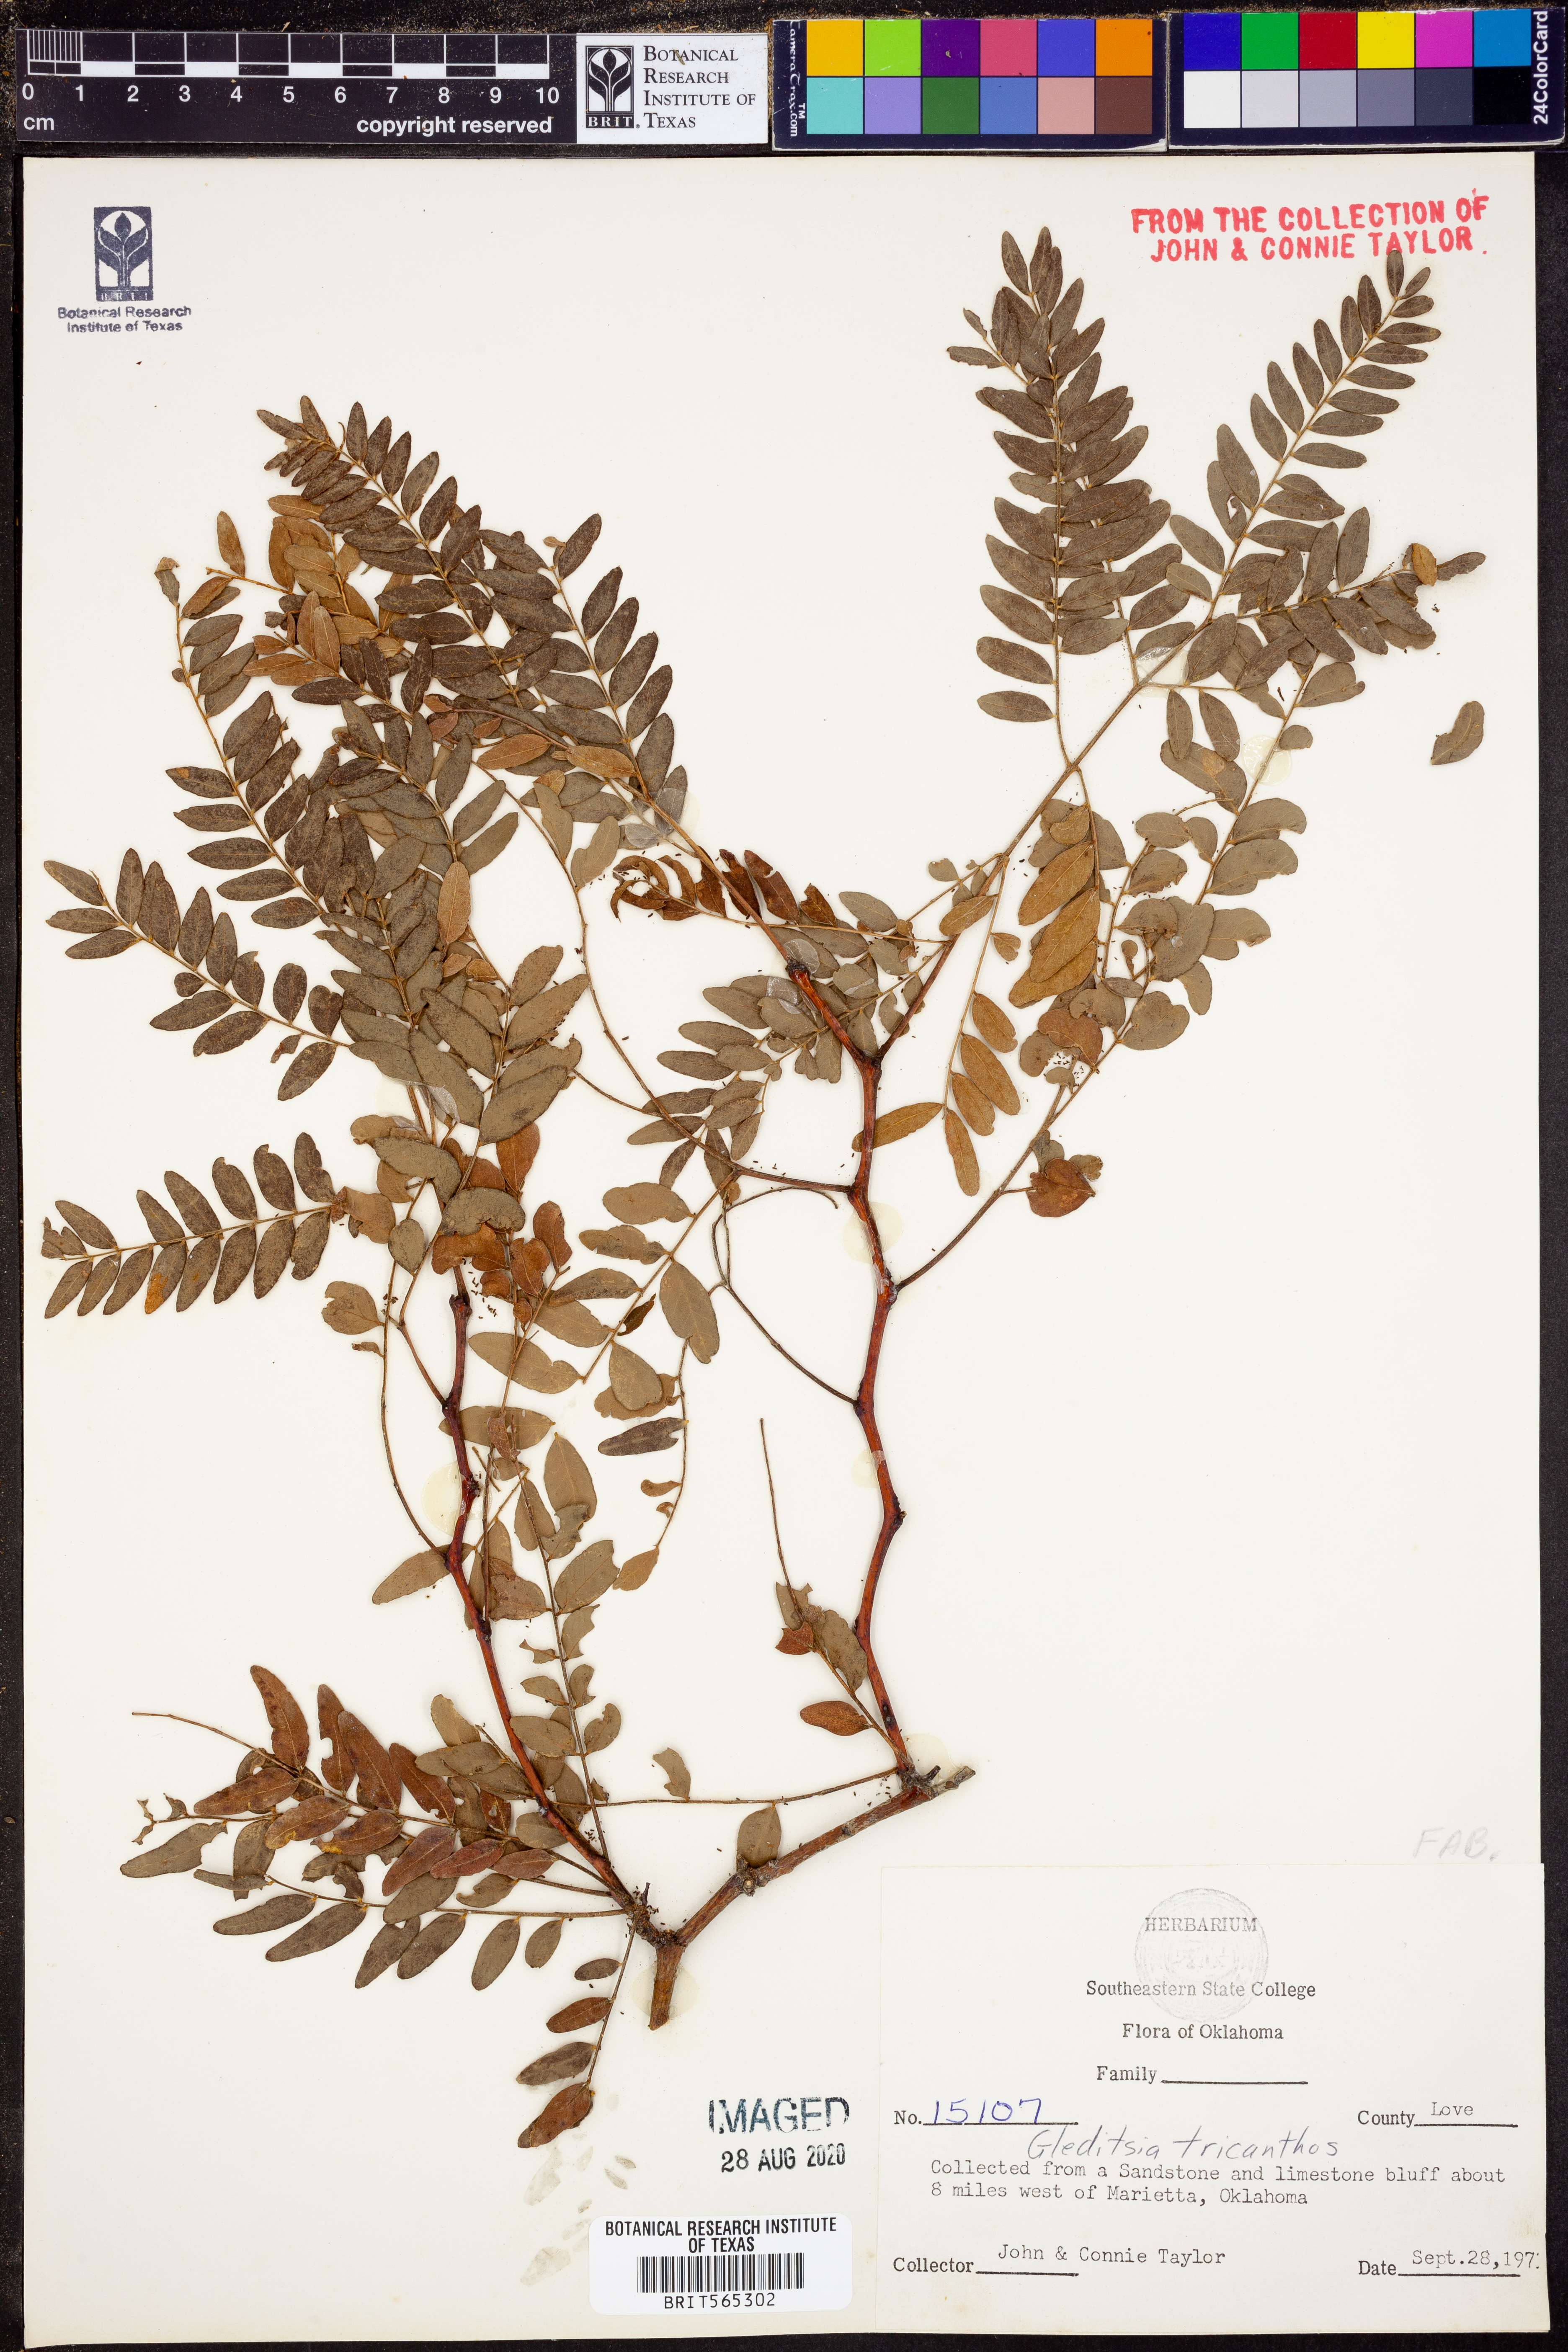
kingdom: Plantae
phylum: Tracheophyta
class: Magnoliopsida
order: Fabales
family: Fabaceae
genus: Gleditsia
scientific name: Gleditsia triacanthos
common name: Common honeylocust
